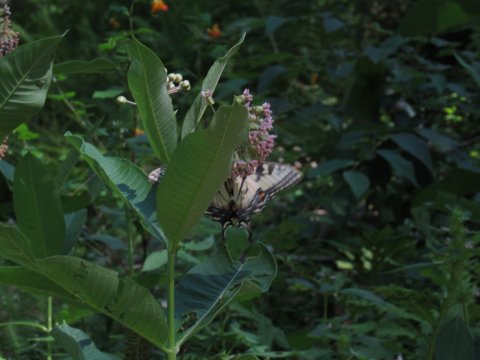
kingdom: Animalia
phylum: Arthropoda
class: Insecta
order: Lepidoptera
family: Papilionidae
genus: Pterourus
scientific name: Pterourus
